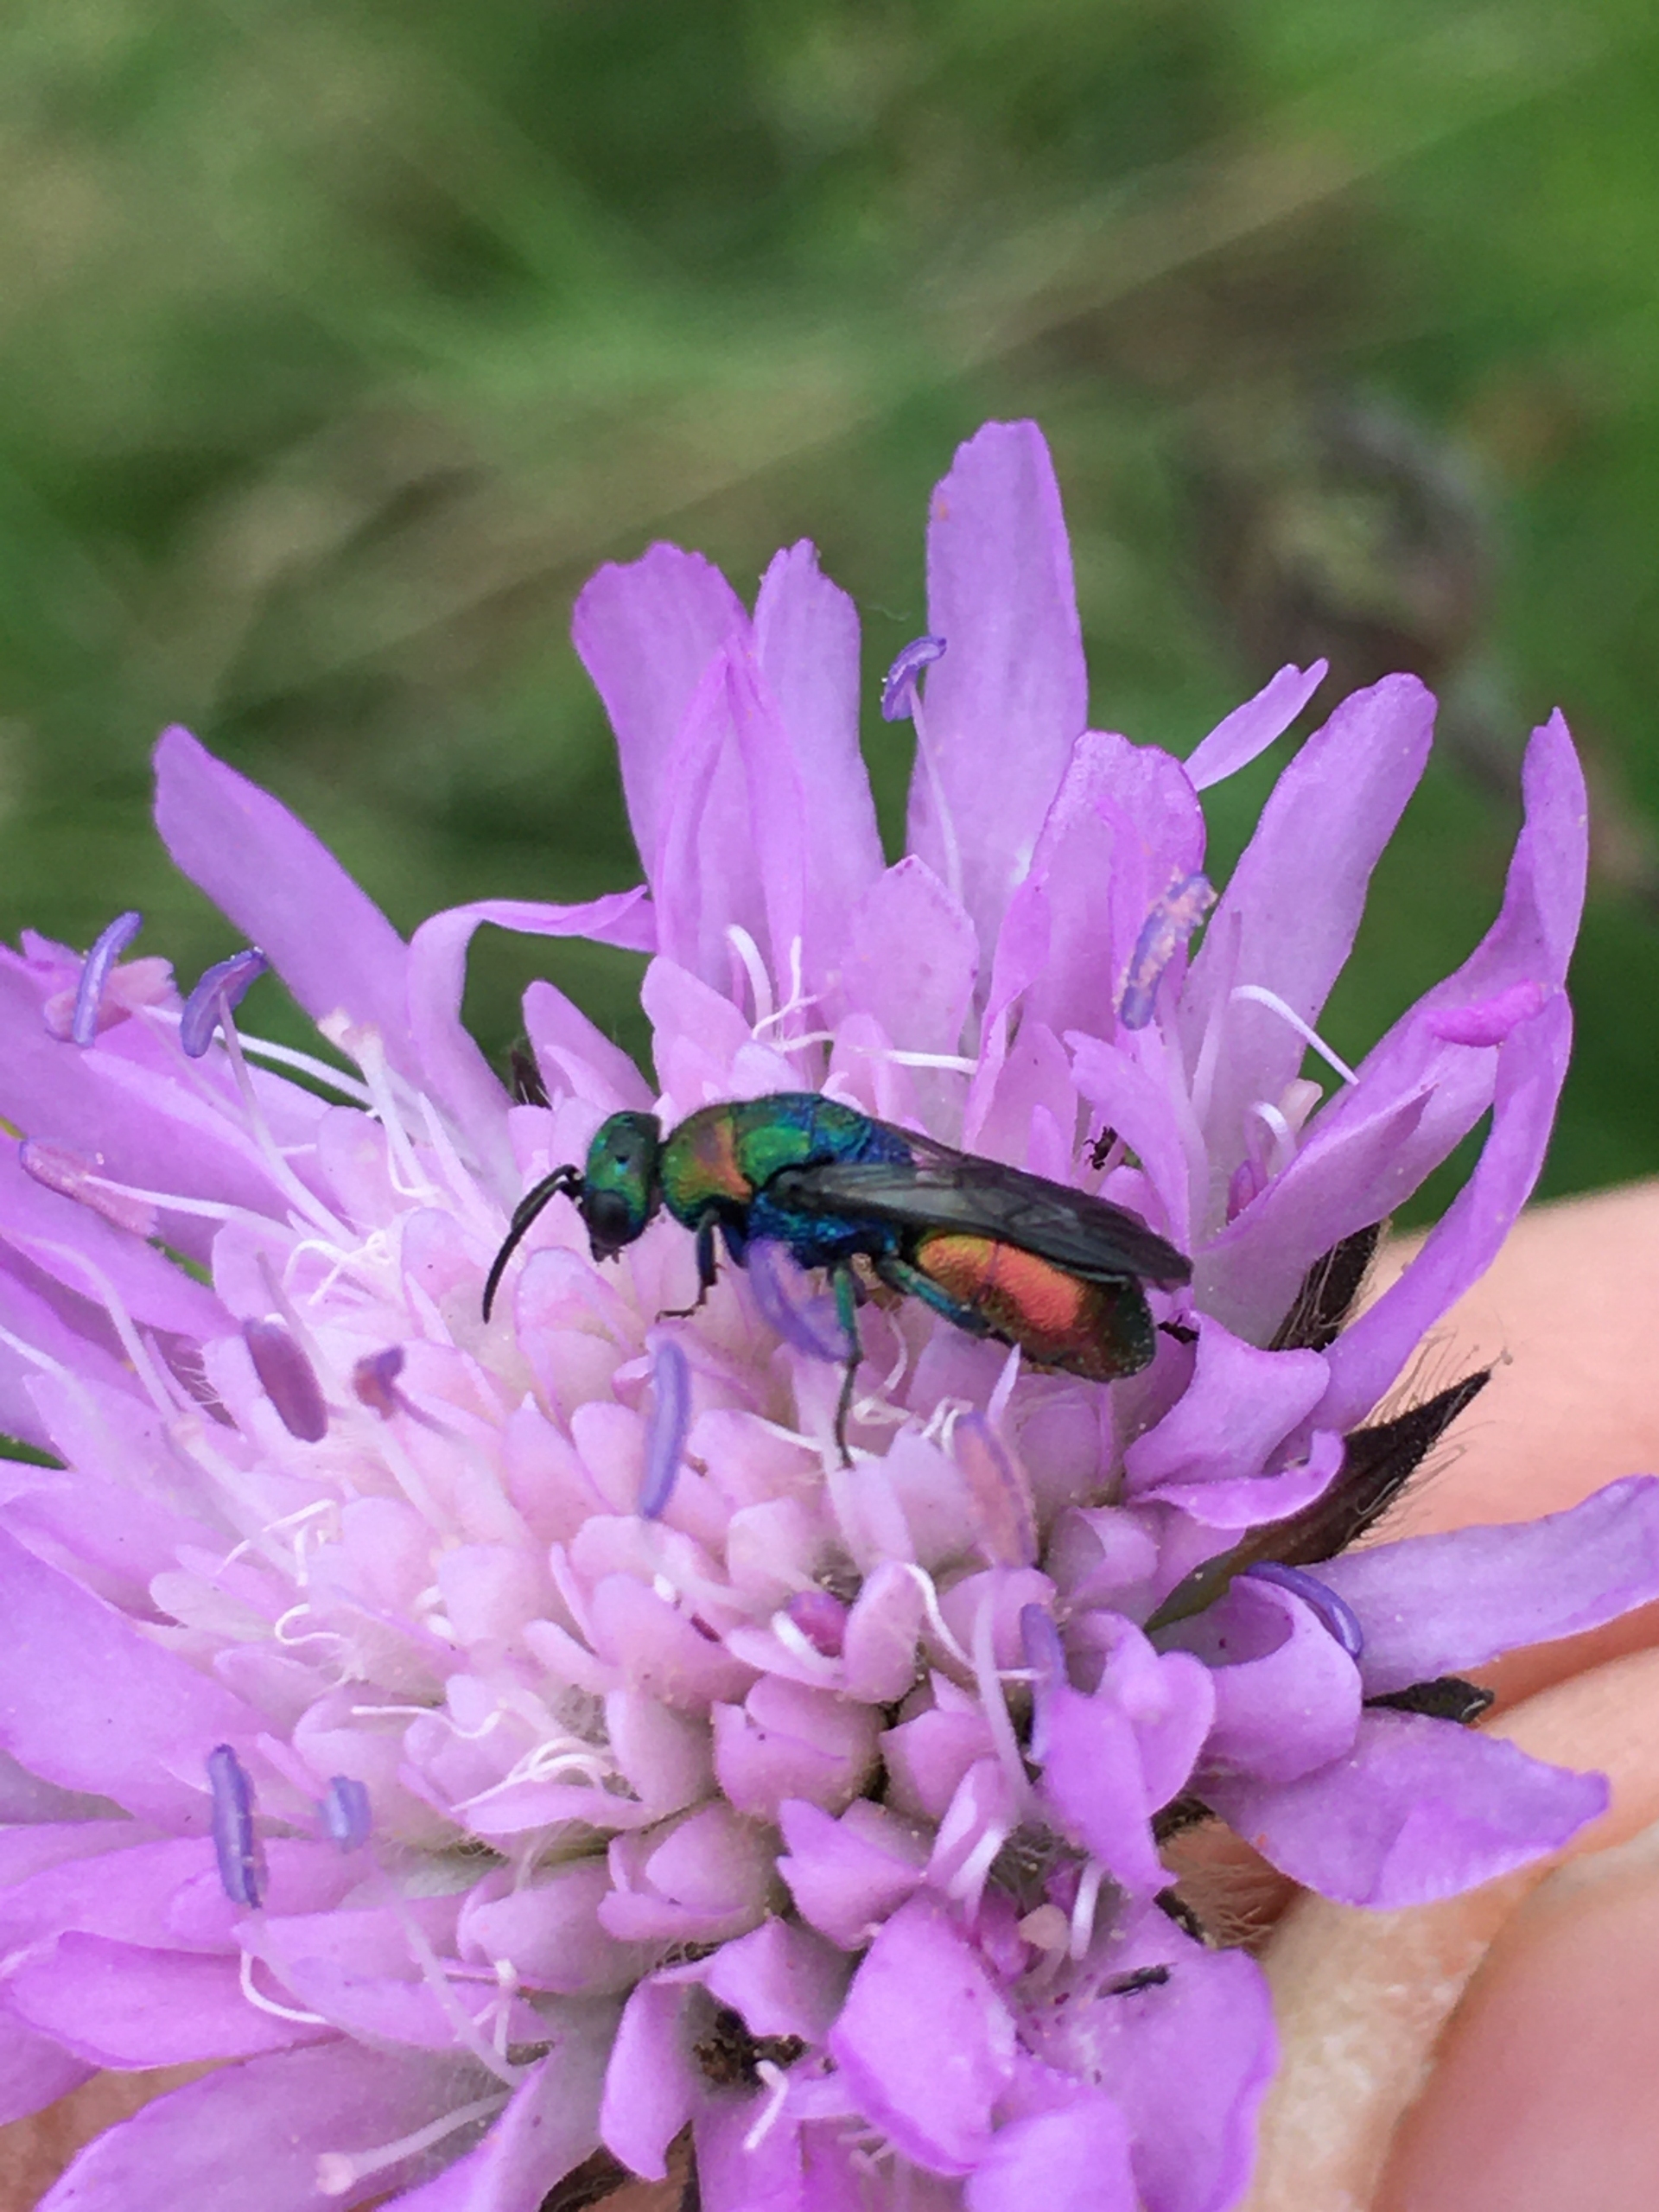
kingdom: Animalia
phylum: Arthropoda
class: Insecta
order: Hymenoptera
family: Chrysididae
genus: Hedychrum
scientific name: Hedychrum rutilans
